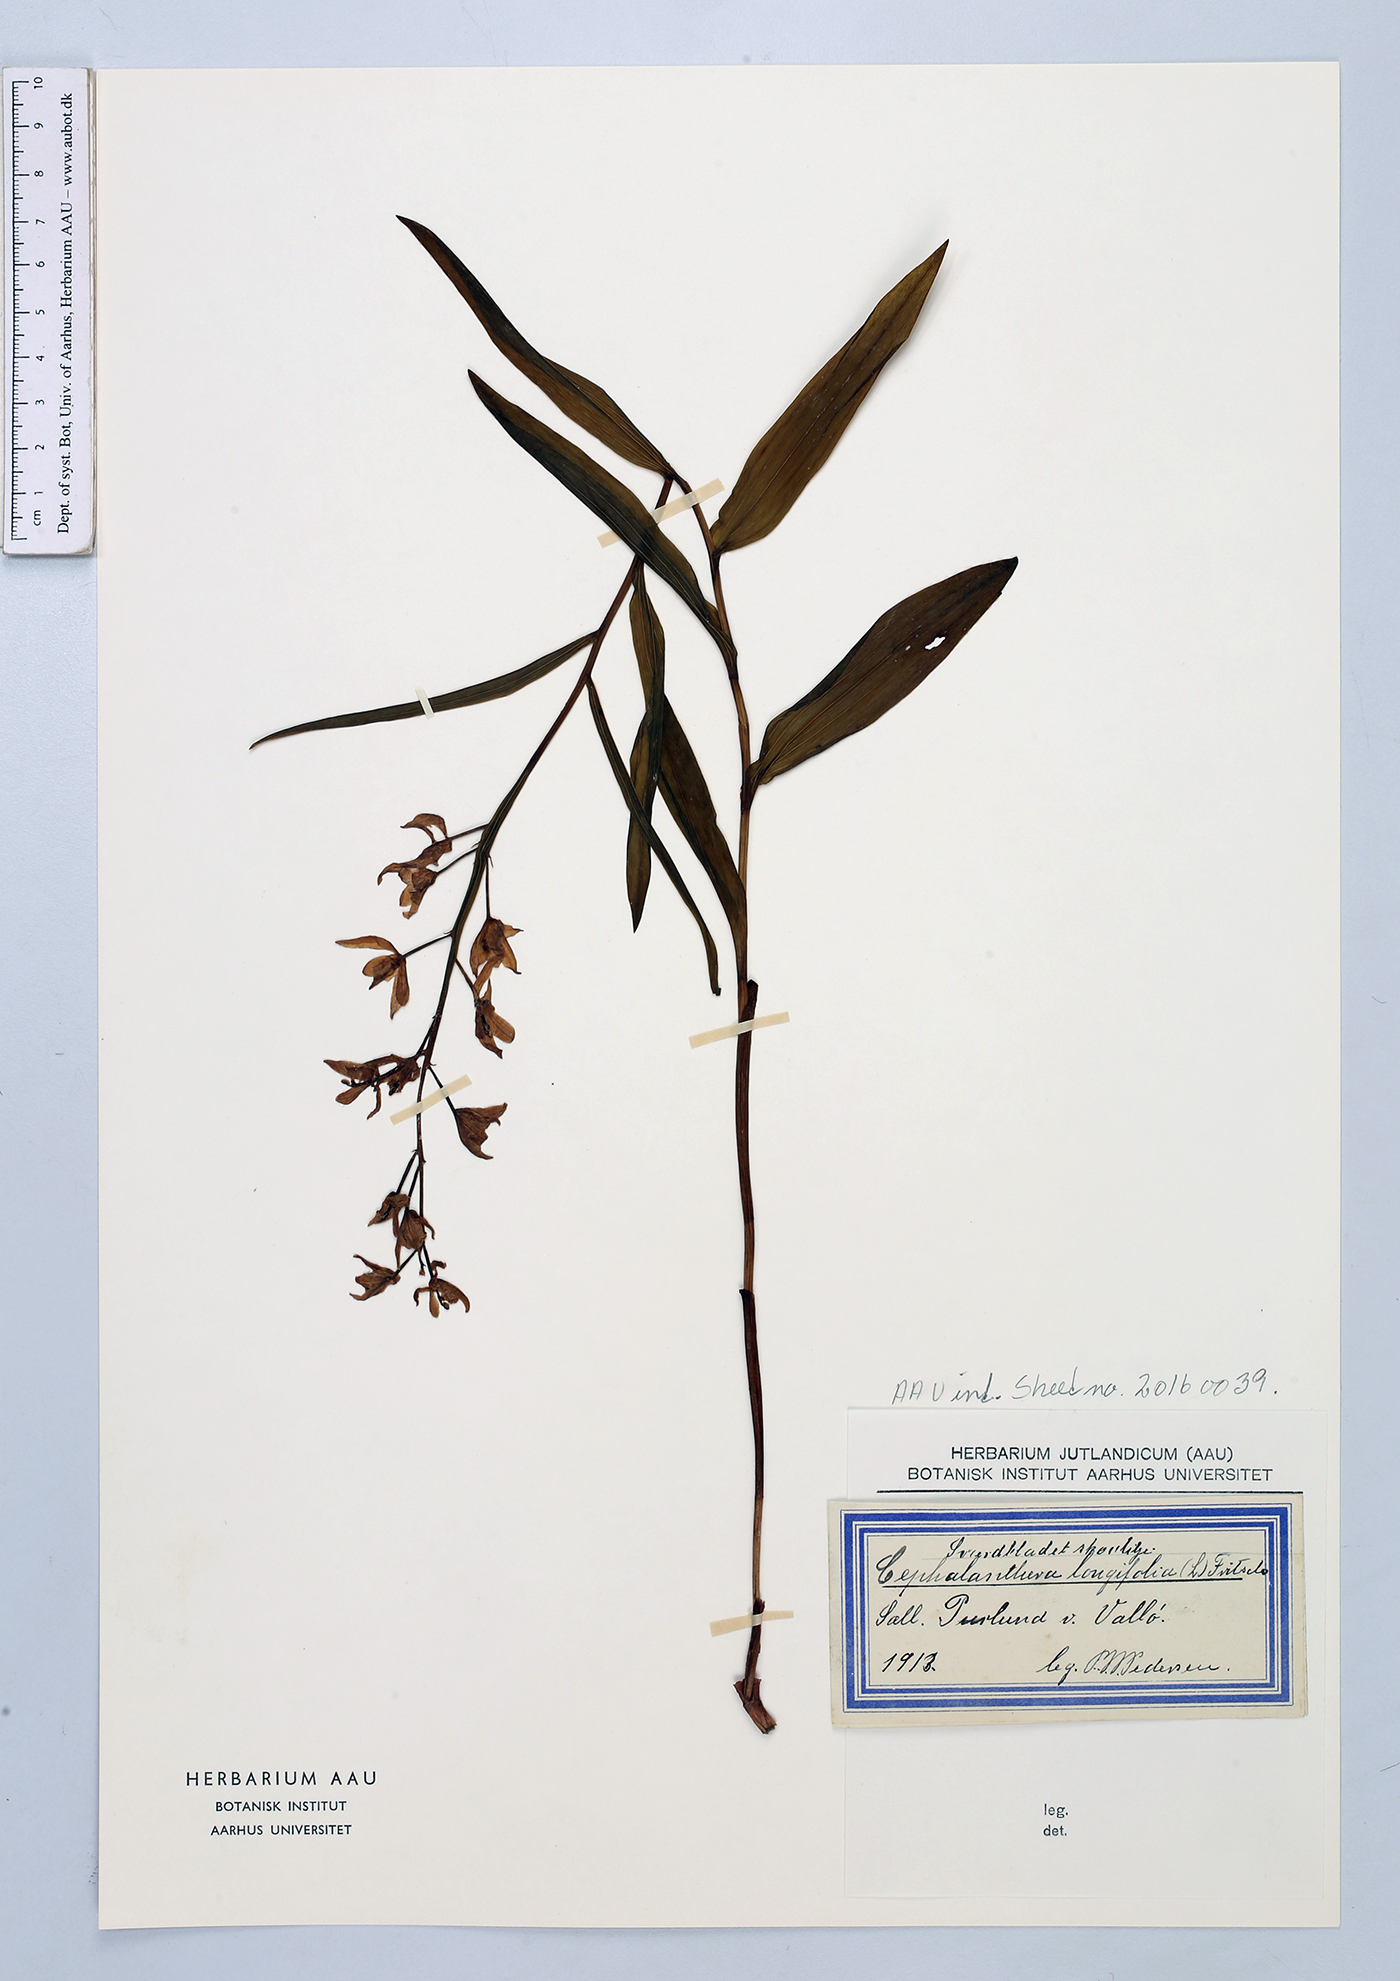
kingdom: Plantae
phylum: Tracheophyta
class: Liliopsida
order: Asparagales
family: Orchidaceae
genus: Cephalanthera
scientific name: Cephalanthera longifolia
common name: Narrow-leaved helleborine
